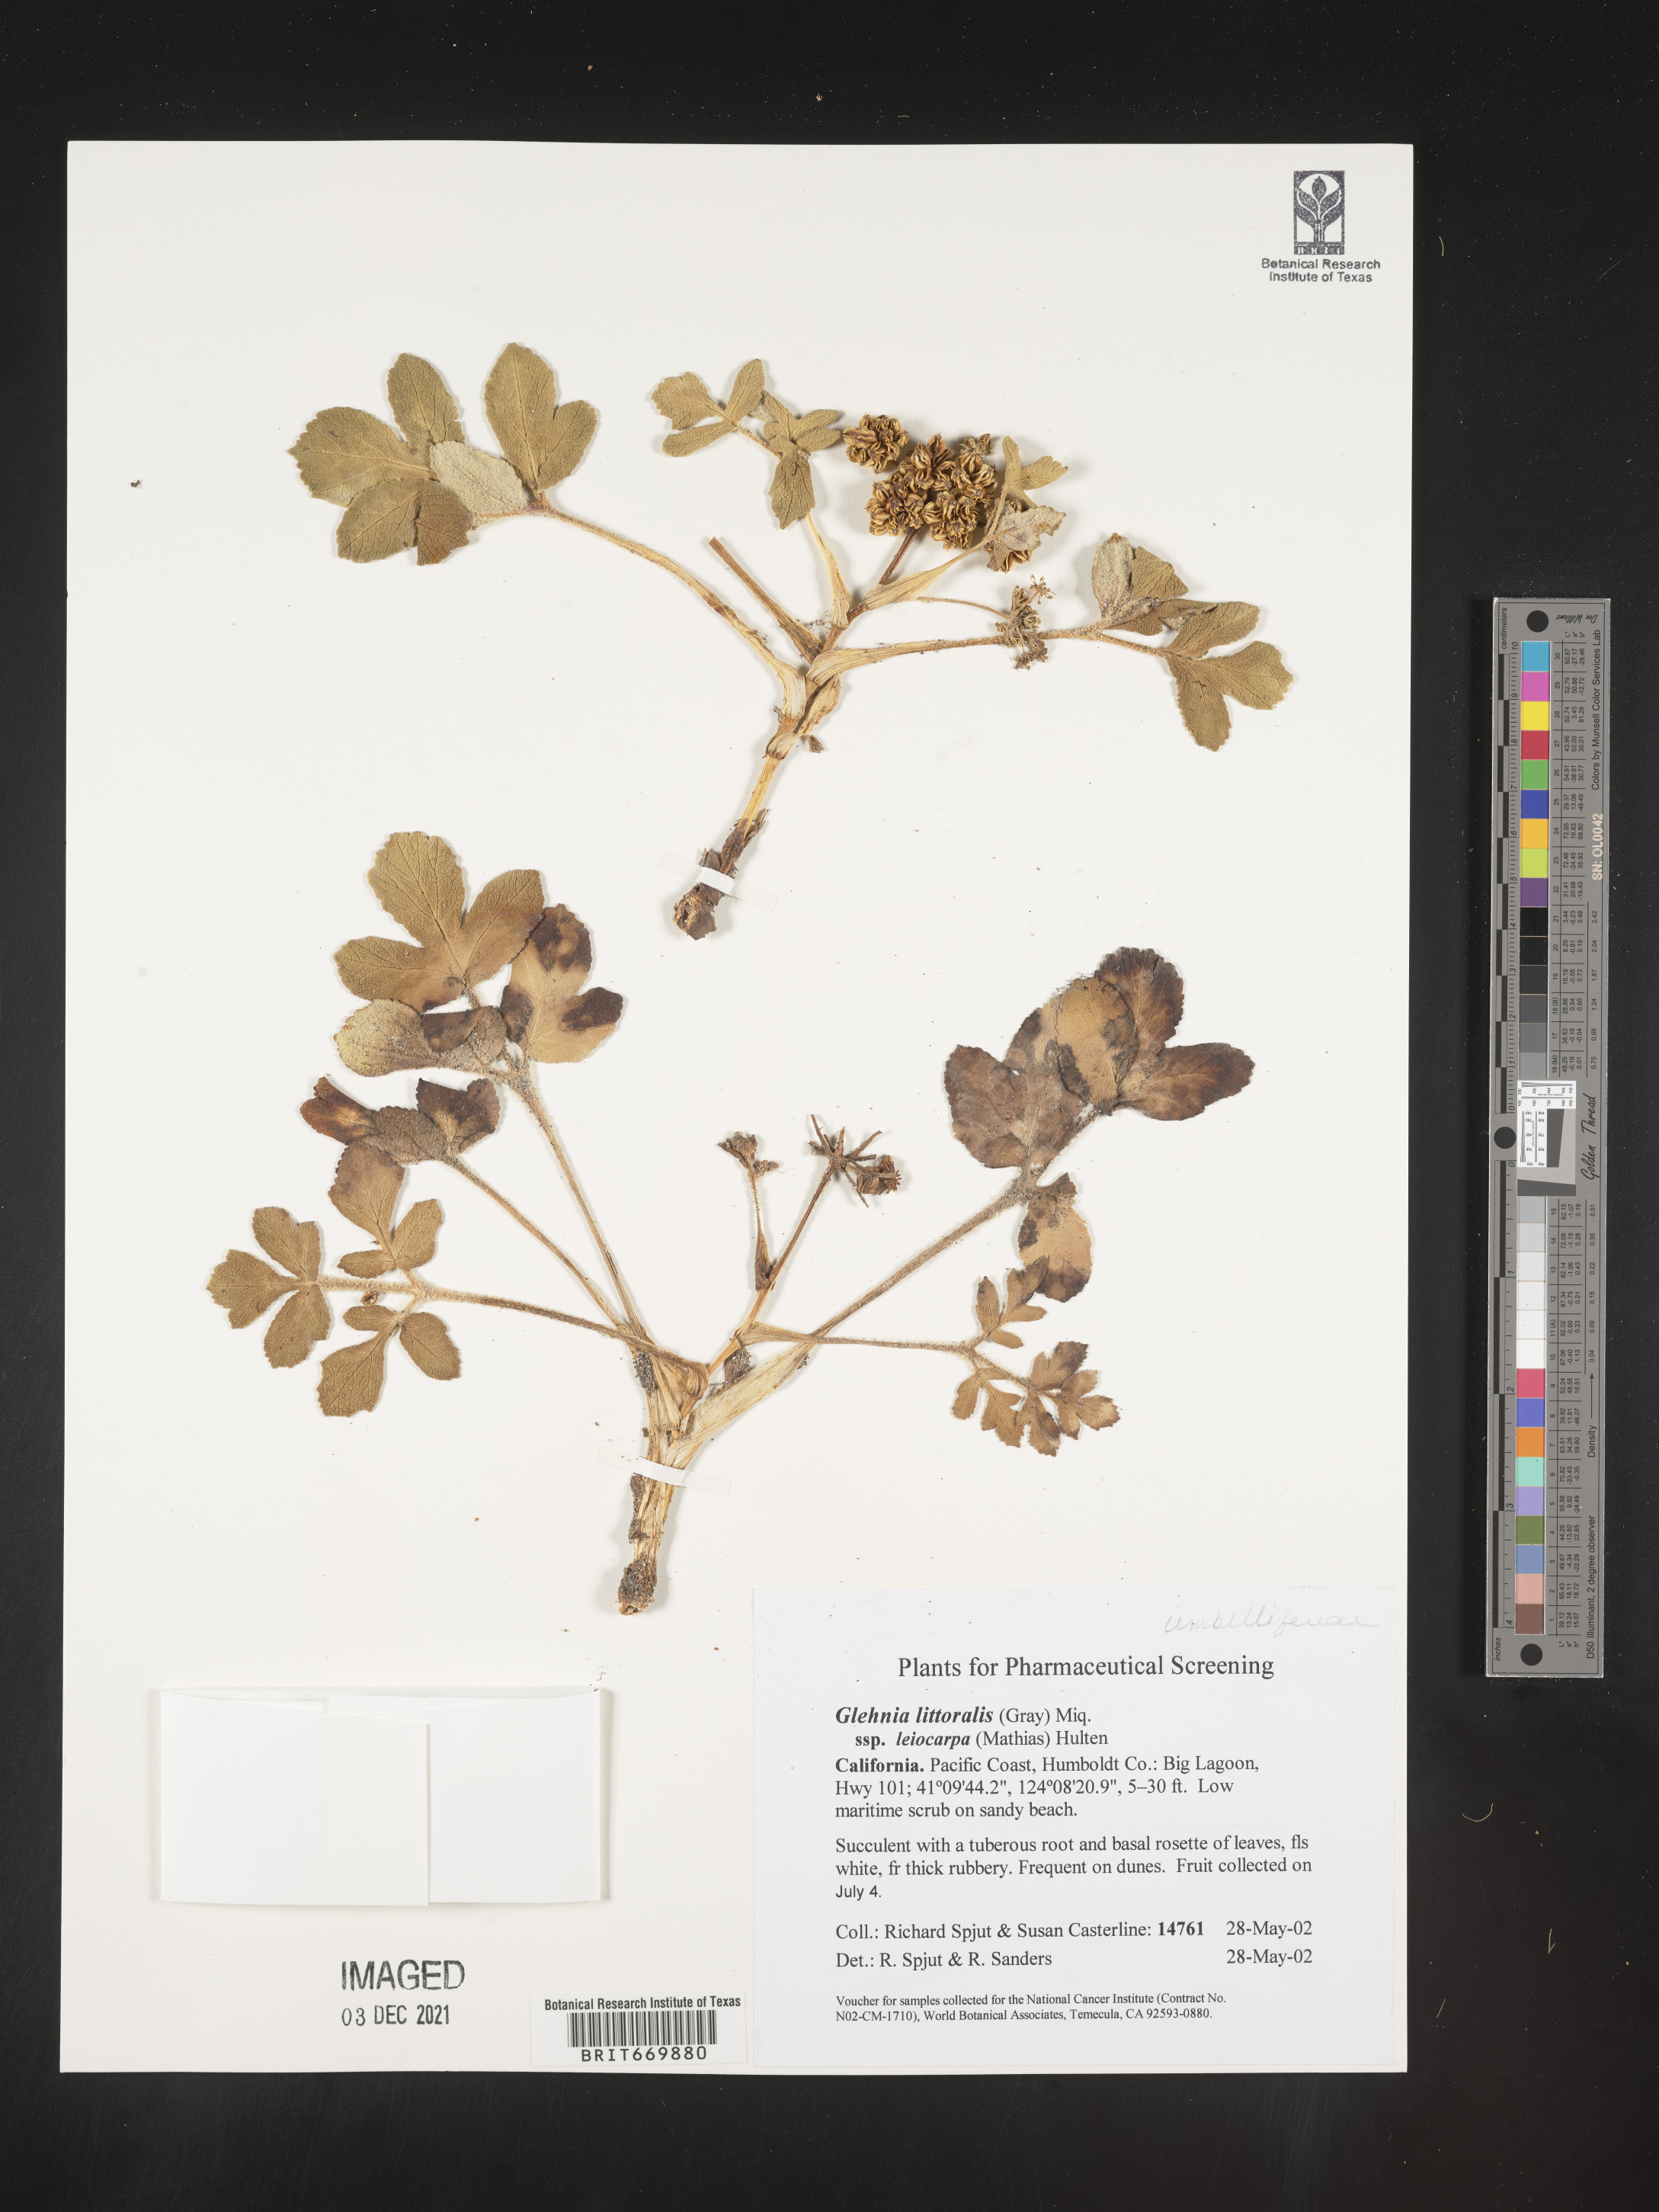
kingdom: Plantae
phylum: Tracheophyta
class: Magnoliopsida
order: Apiales
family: Apiaceae
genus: Glehnia
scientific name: Glehnia
